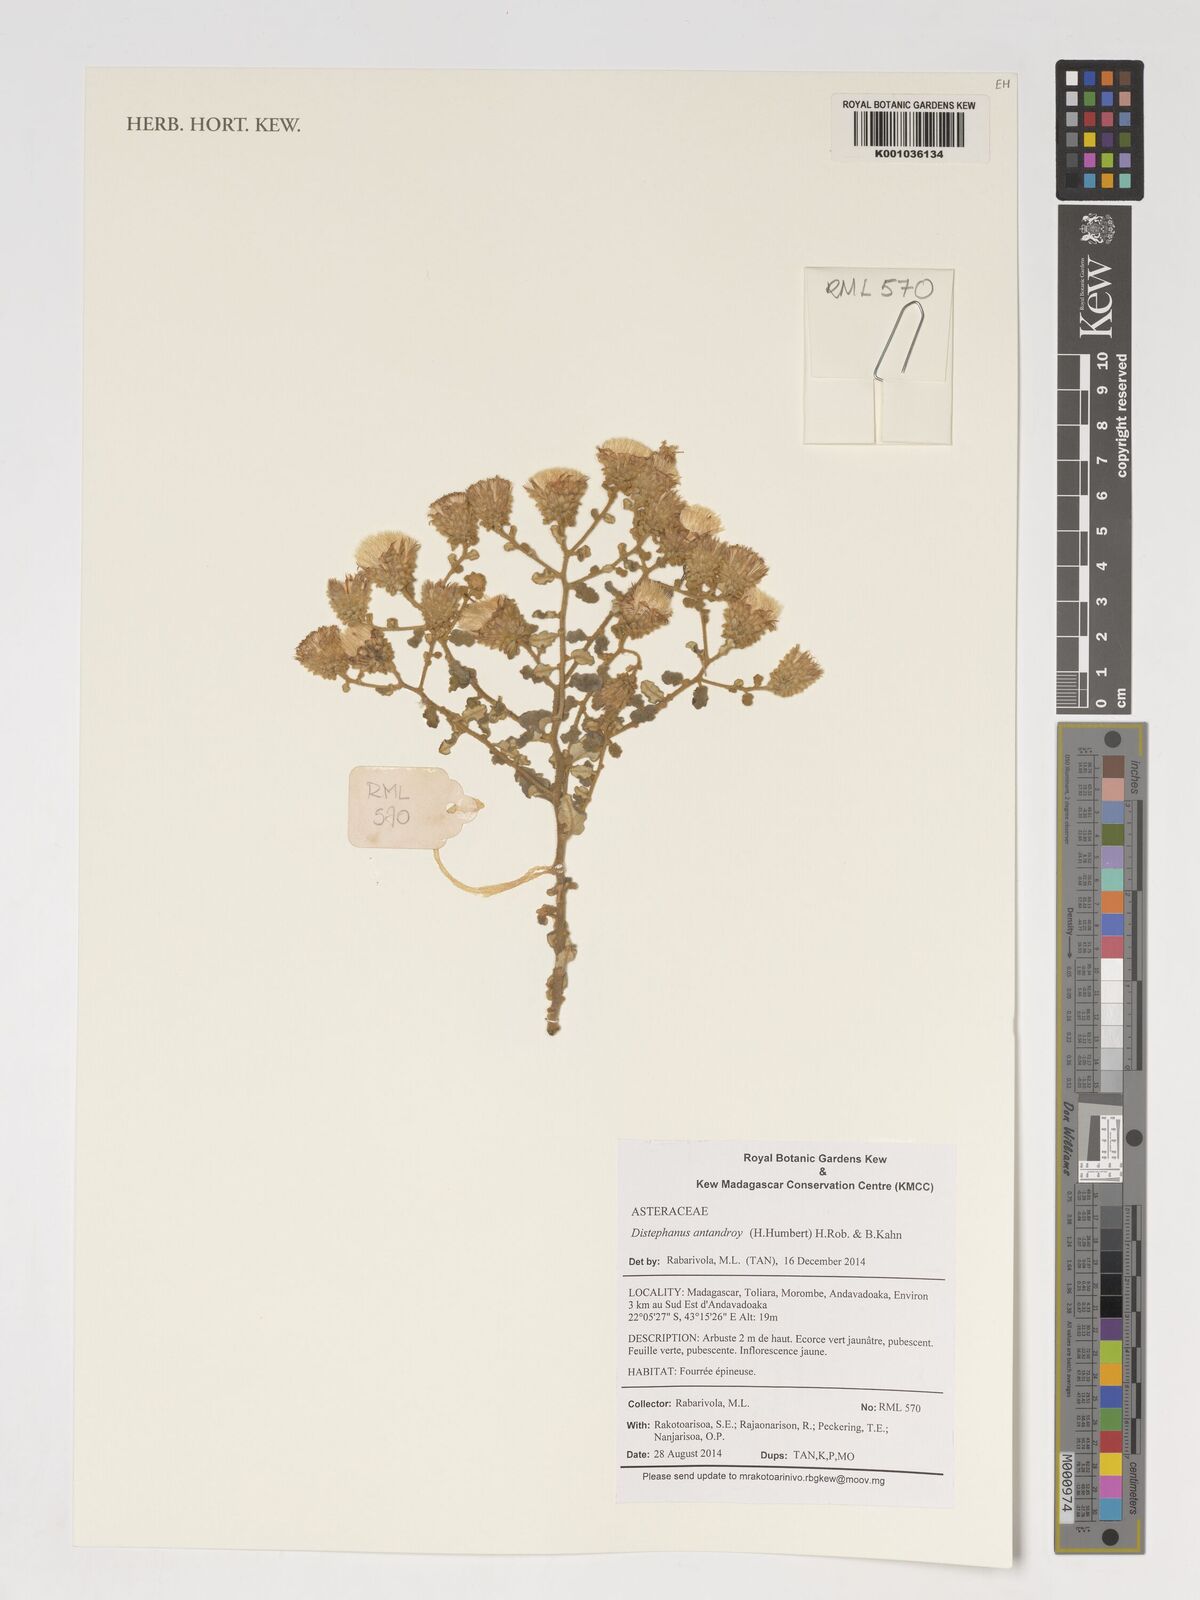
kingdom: Plantae
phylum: Tracheophyta
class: Magnoliopsida
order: Asterales
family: Asteraceae
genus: Distephanus
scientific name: Distephanus antandroy
